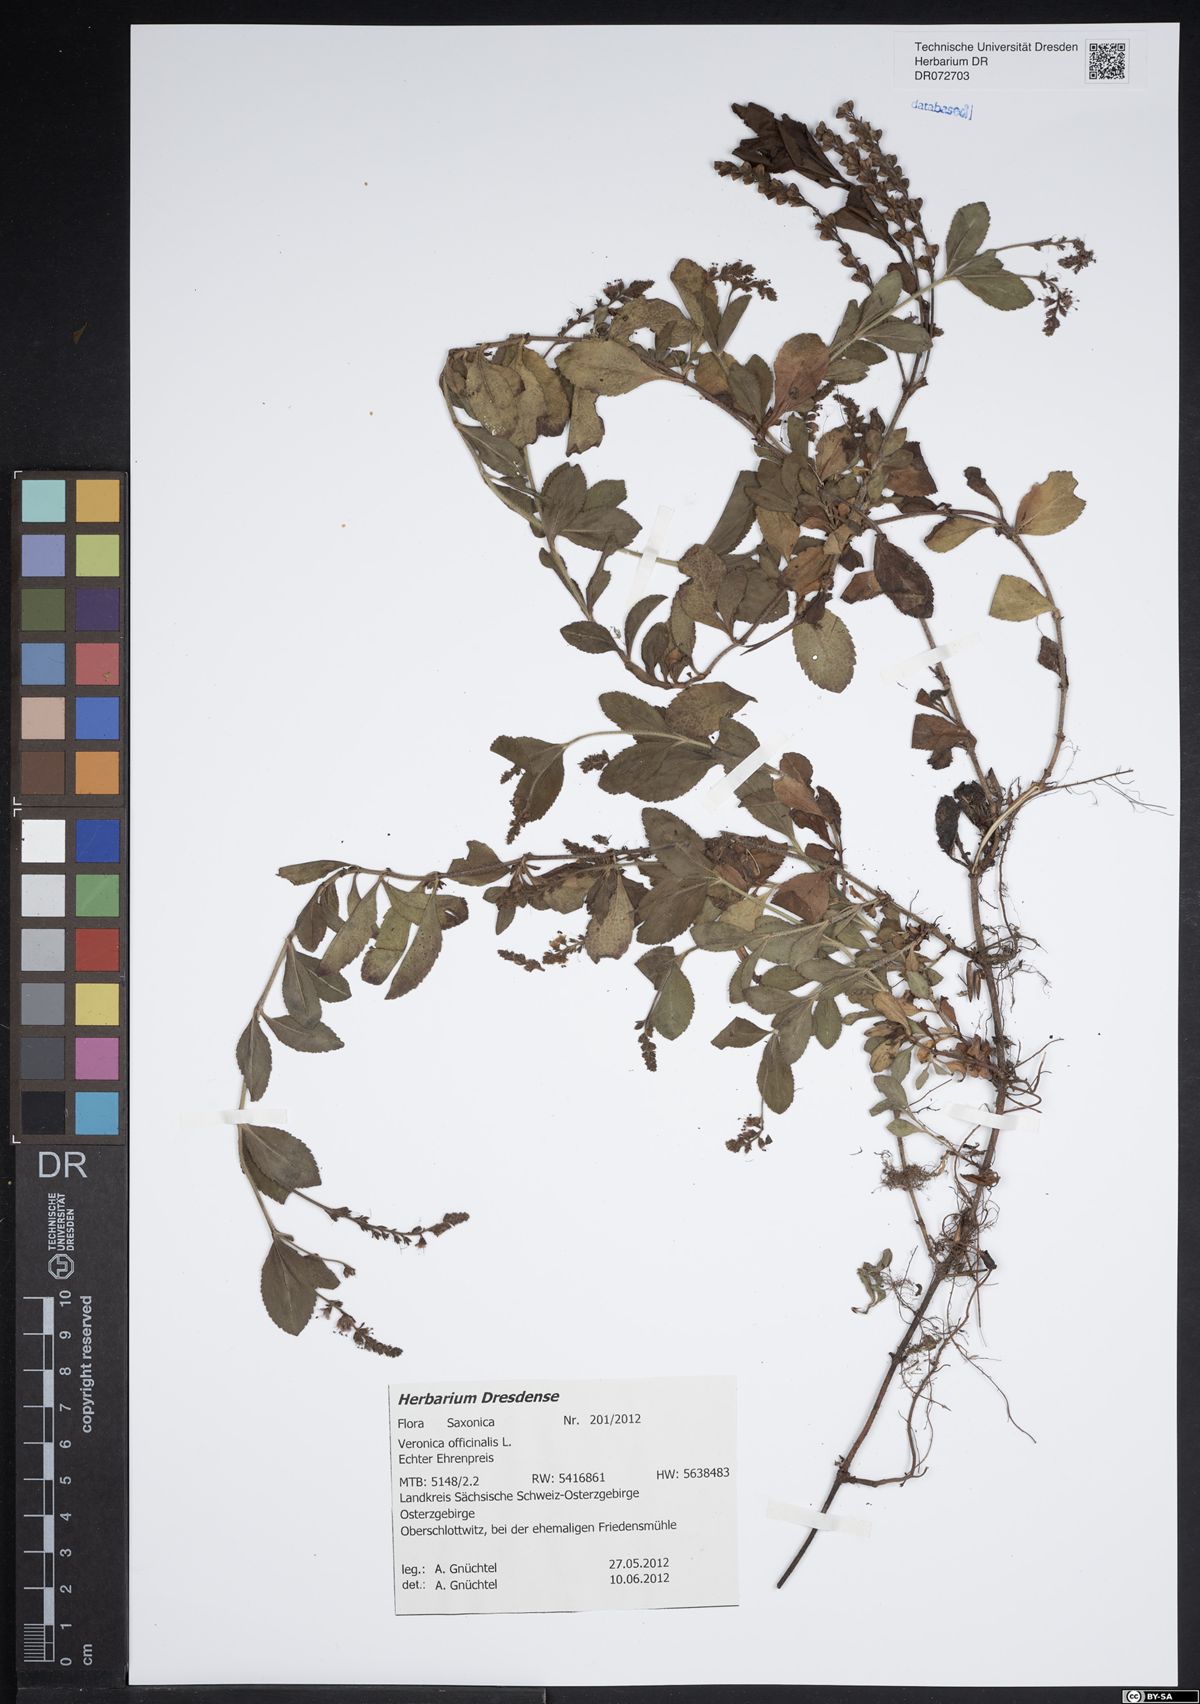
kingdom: Plantae
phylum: Tracheophyta
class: Magnoliopsida
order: Lamiales
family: Plantaginaceae
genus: Veronica
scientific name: Veronica officinalis
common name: Common speedwell
